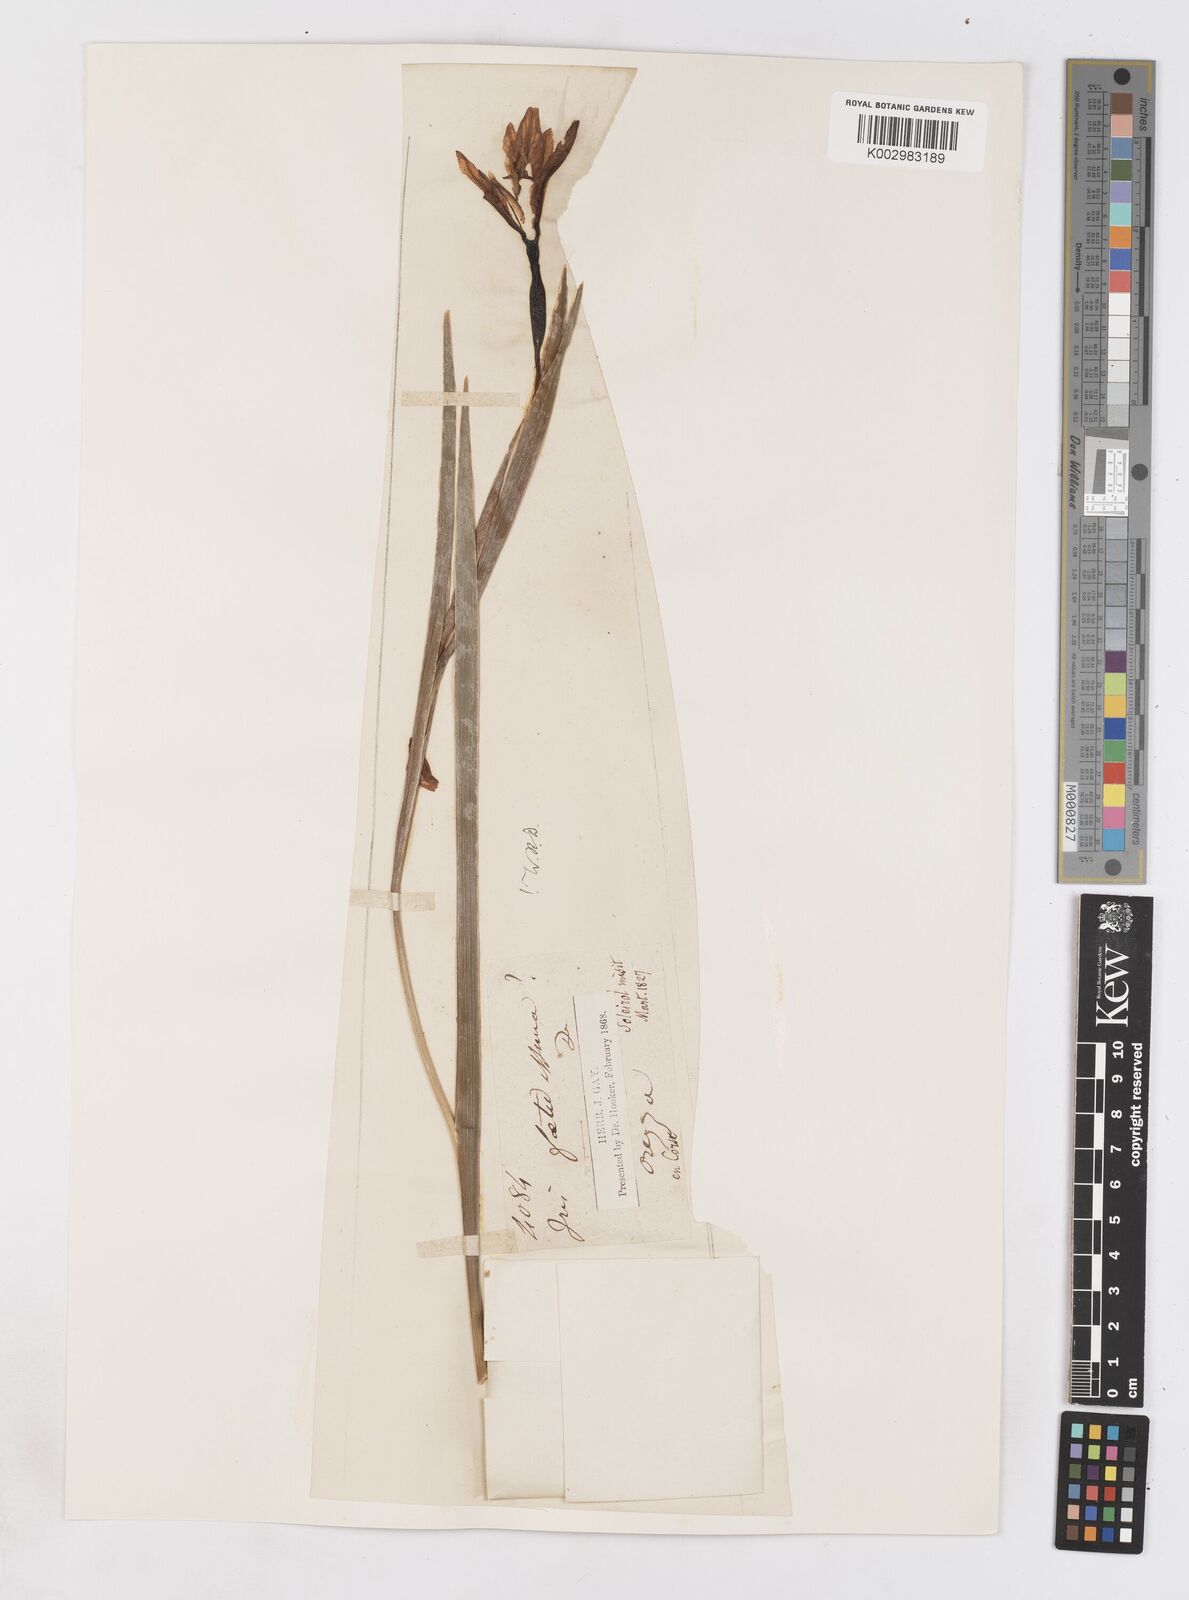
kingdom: Plantae
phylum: Tracheophyta
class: Liliopsida
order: Asparagales
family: Iridaceae
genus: Iris
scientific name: Iris foetidissima
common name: Stinking iris
